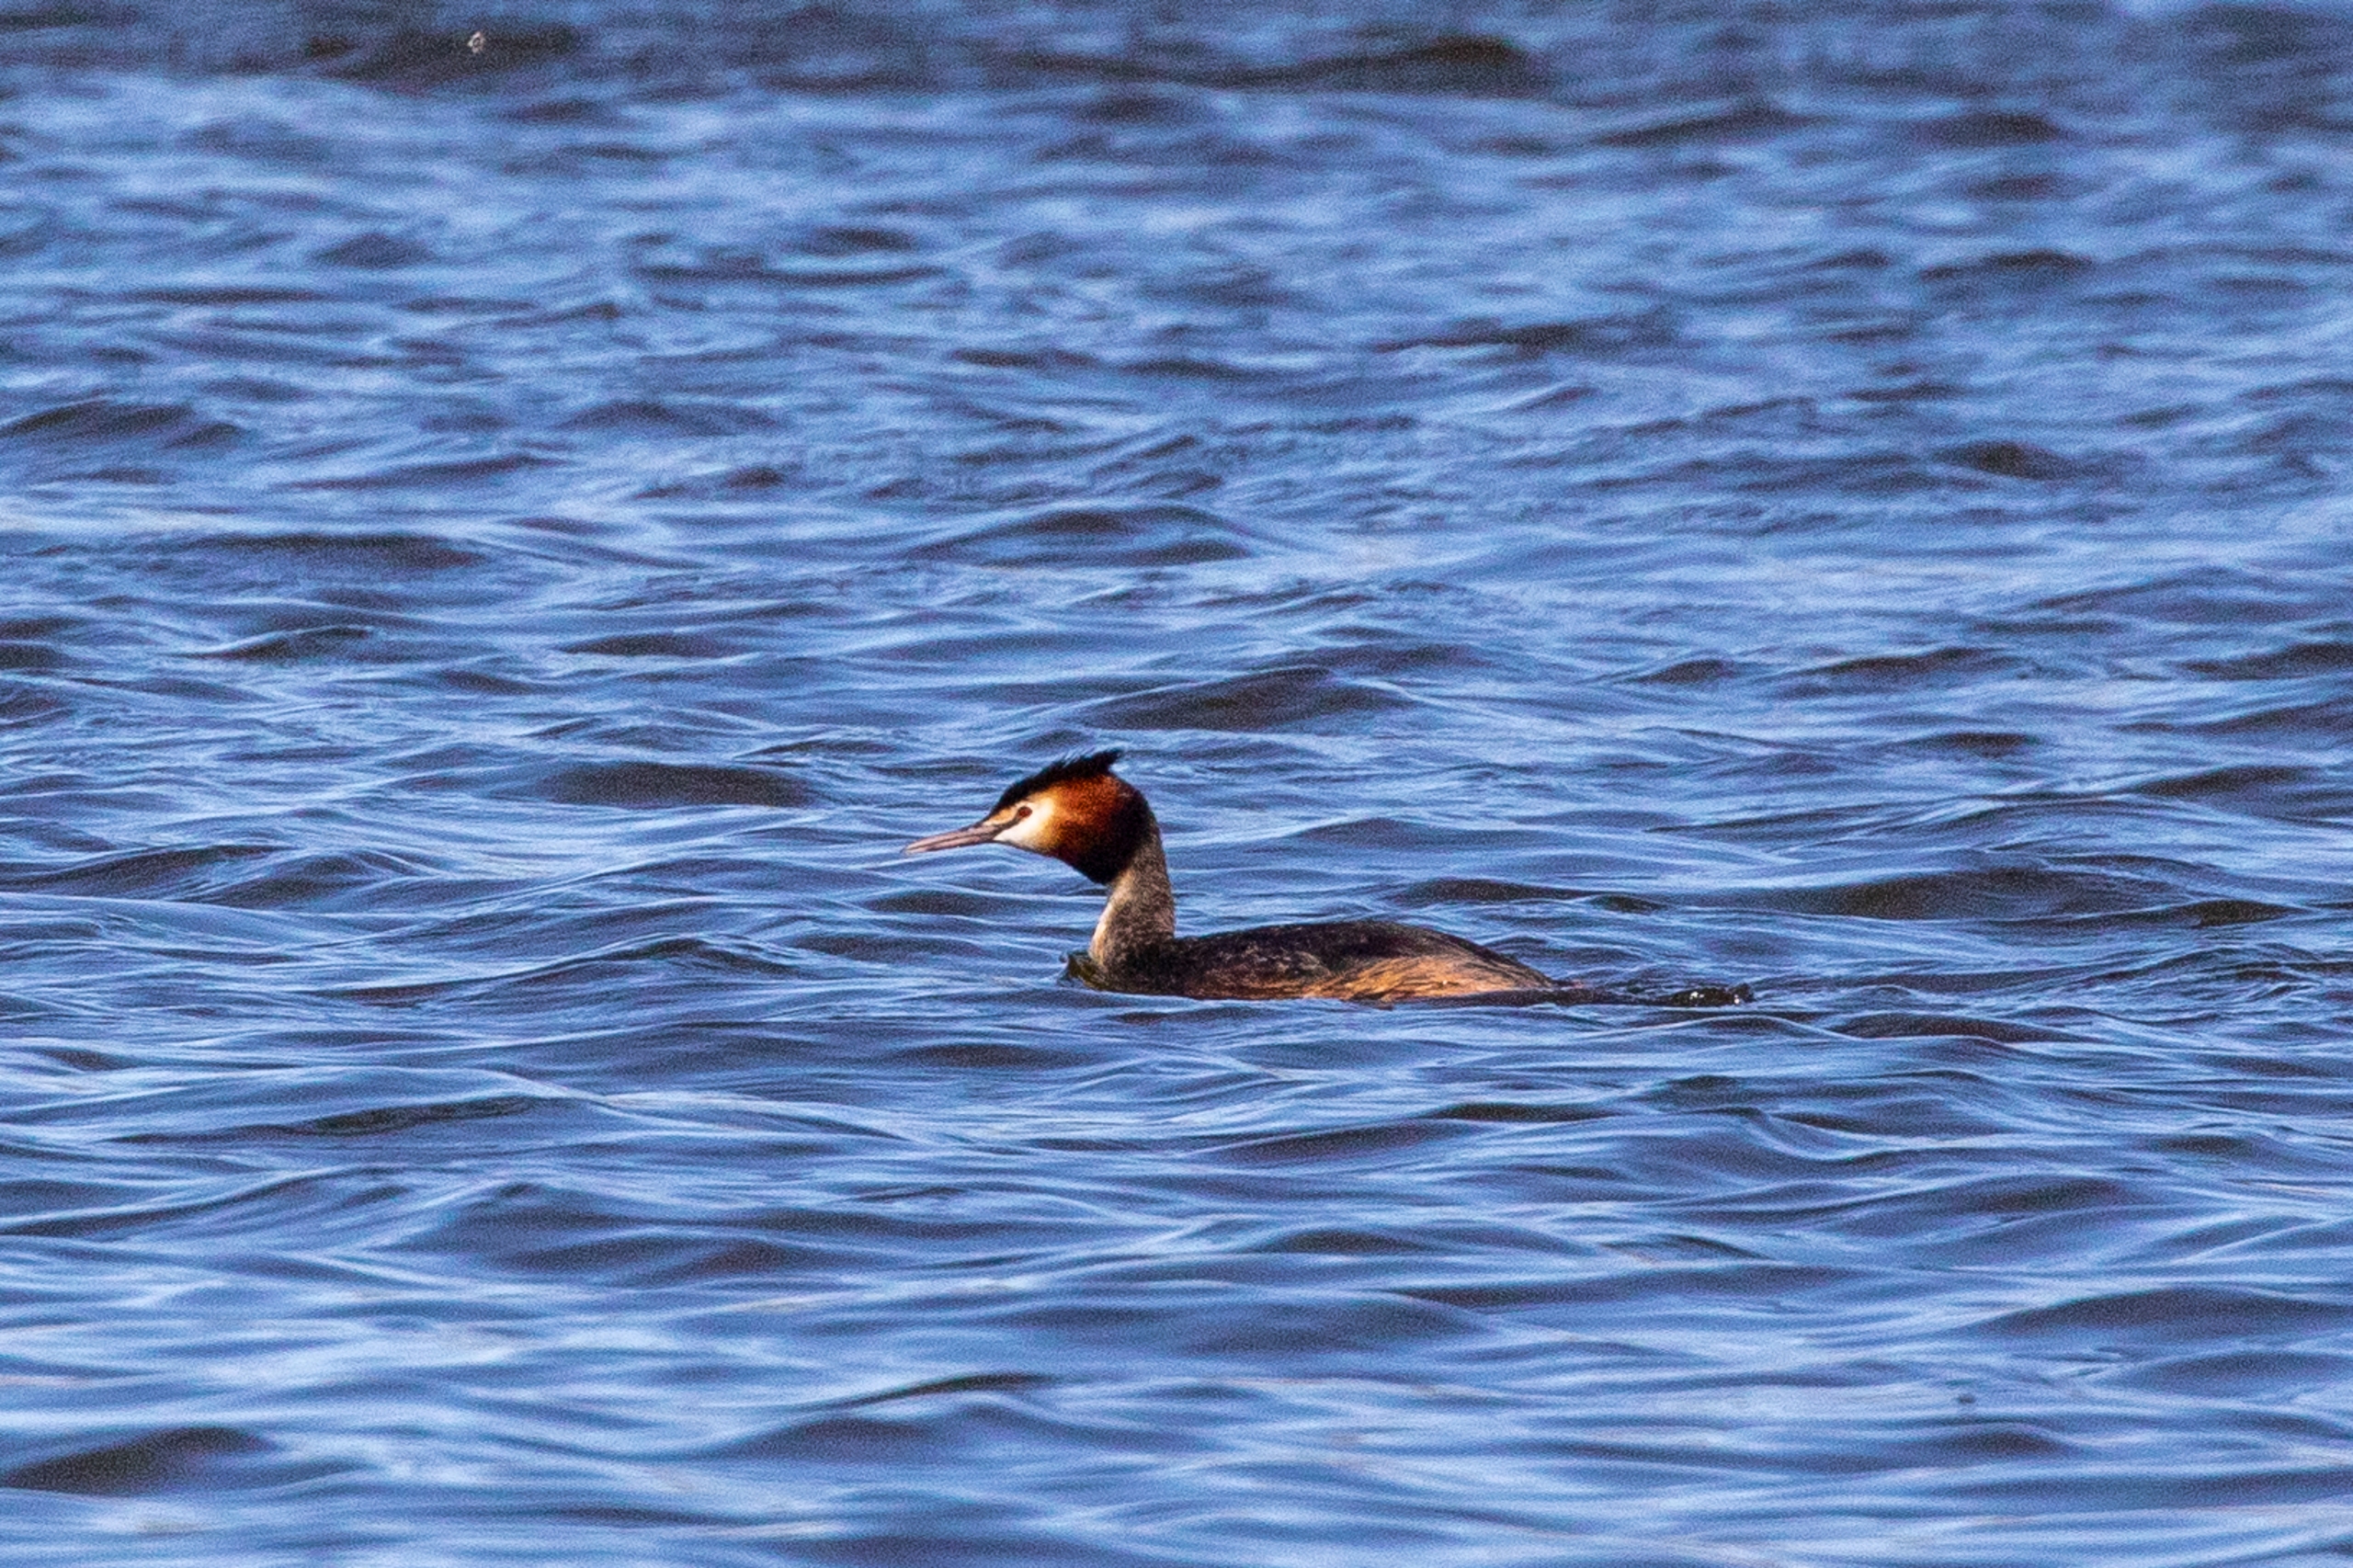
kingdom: Animalia
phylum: Chordata
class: Aves
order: Podicipediformes
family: Podicipedidae
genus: Podiceps
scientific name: Podiceps cristatus
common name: Toppet lappedykker
